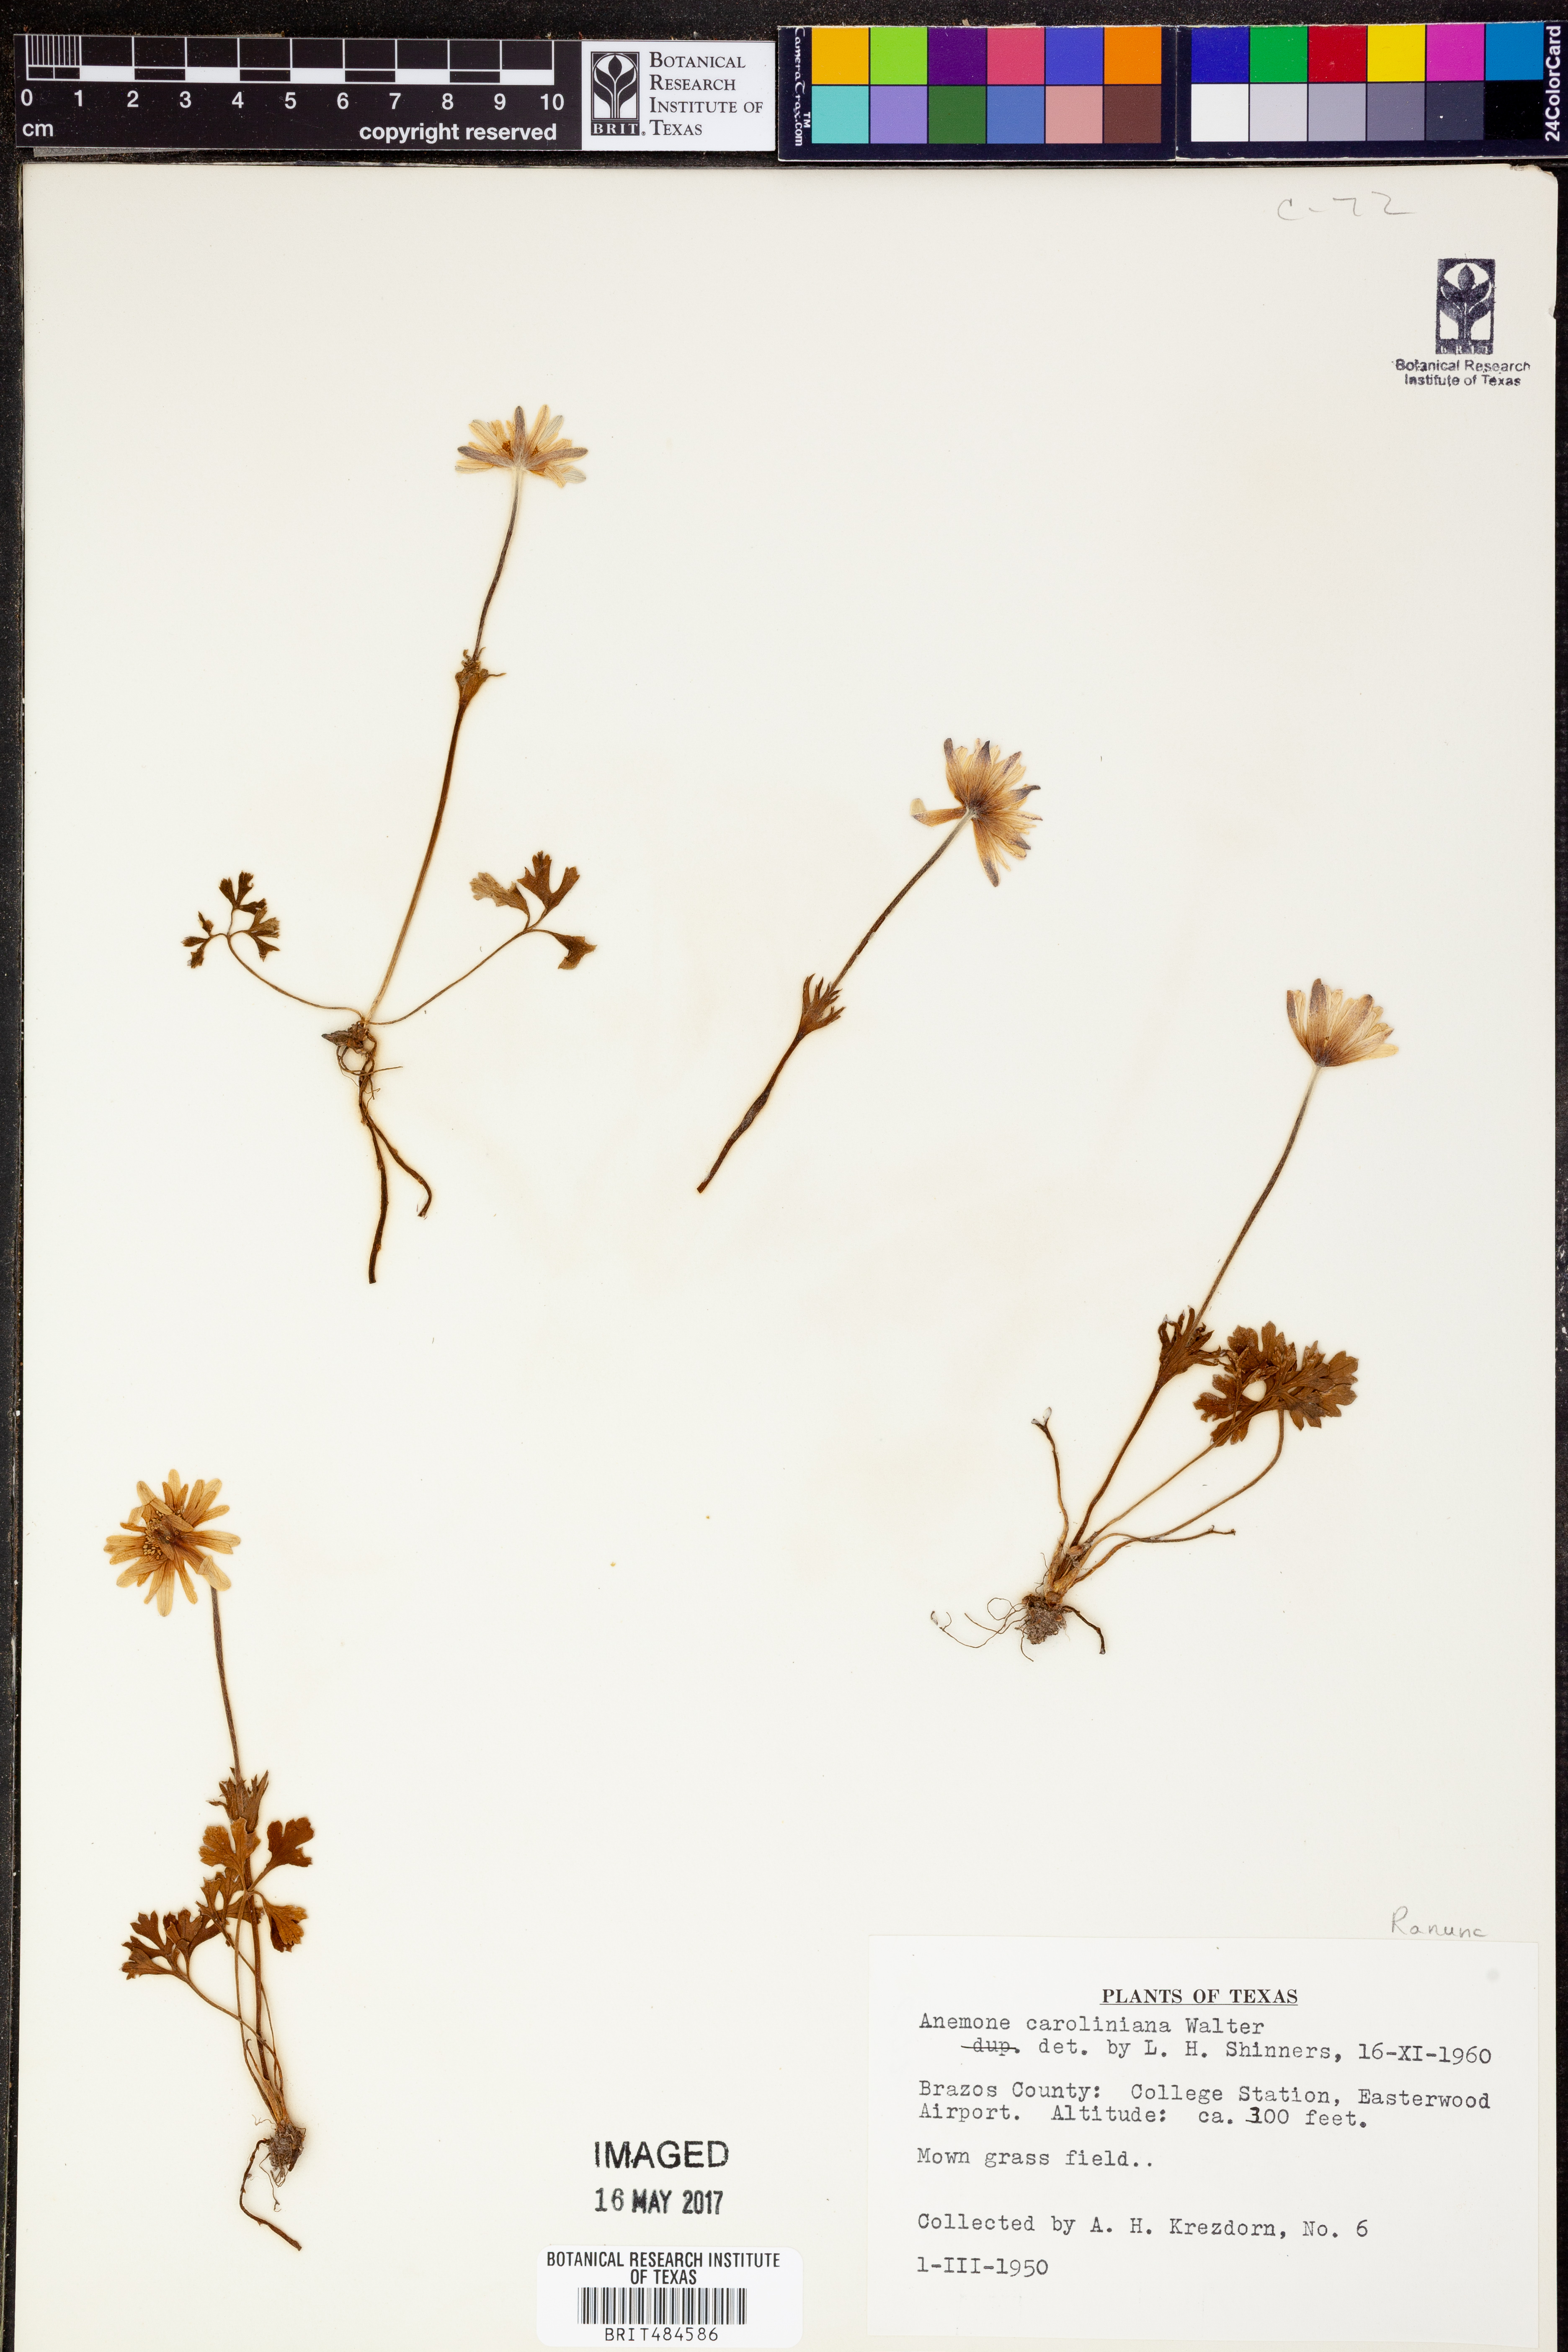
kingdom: Plantae
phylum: Tracheophyta
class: Magnoliopsida
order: Ranunculales
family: Ranunculaceae
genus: Anemone
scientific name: Anemone caroliniana
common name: Carolina anemone
